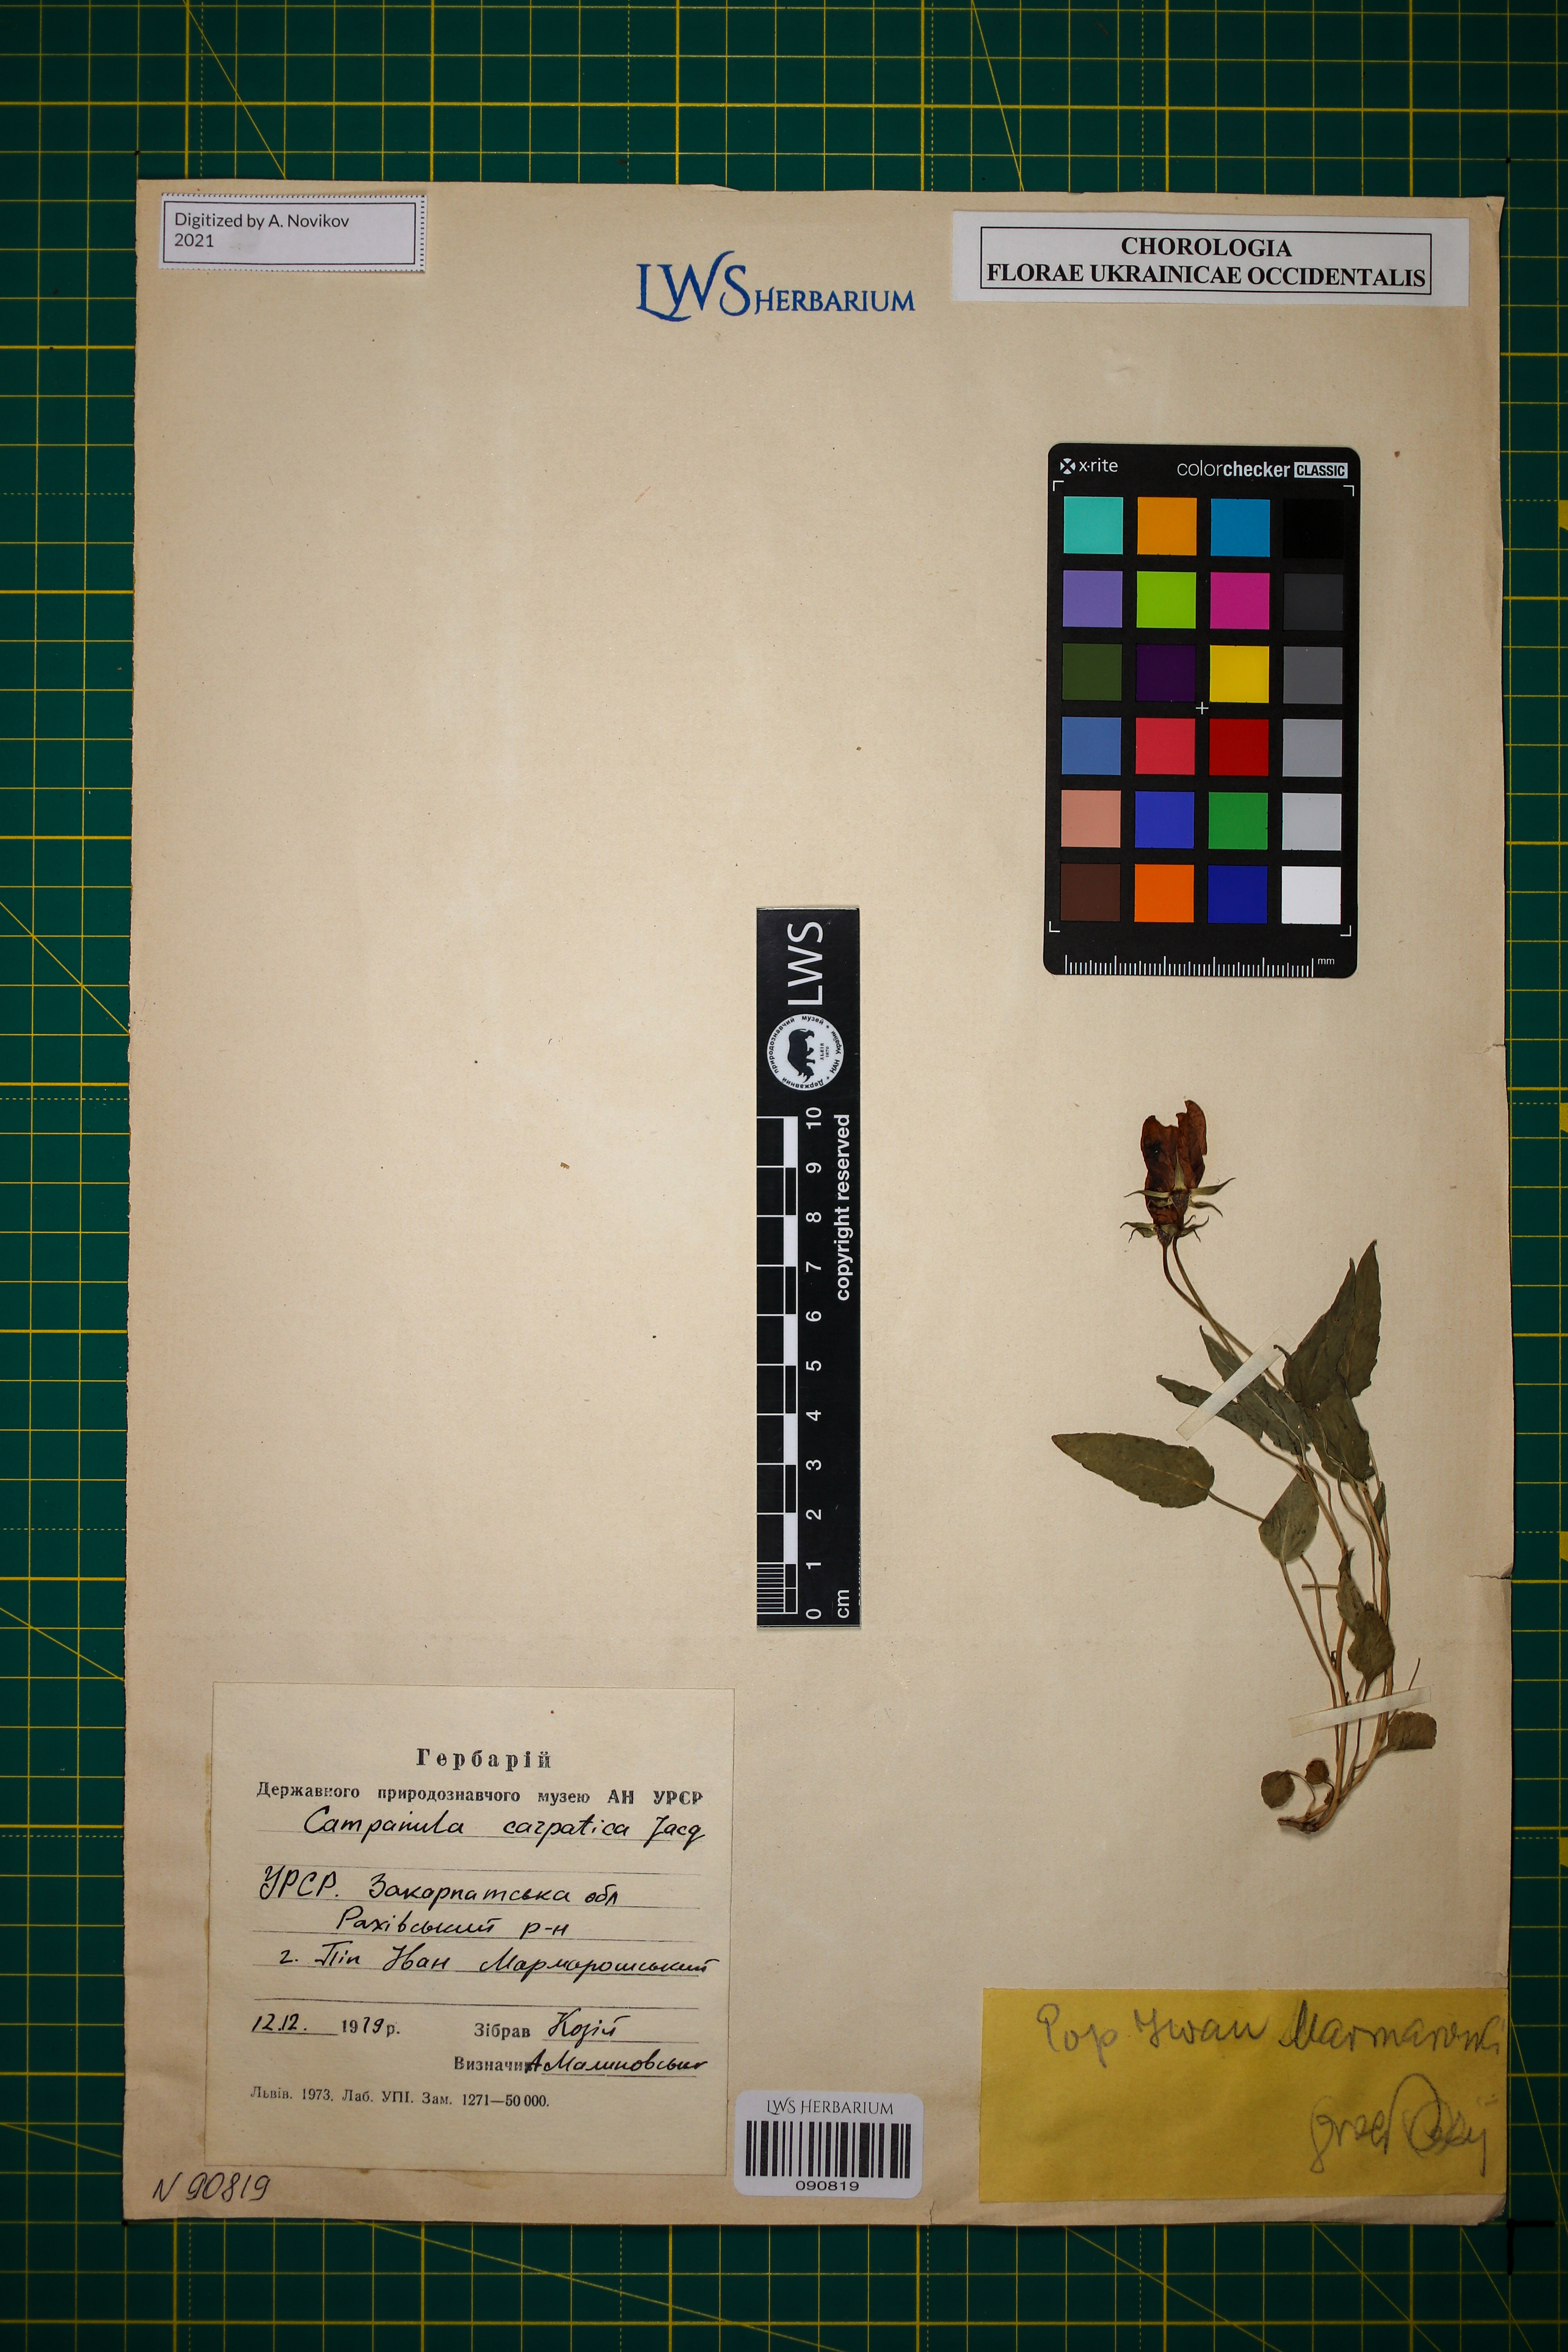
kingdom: Plantae
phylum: Tracheophyta
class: Magnoliopsida
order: Asterales
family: Campanulaceae
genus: Campanula
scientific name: Campanula carpatica
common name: Tussock bellflower
